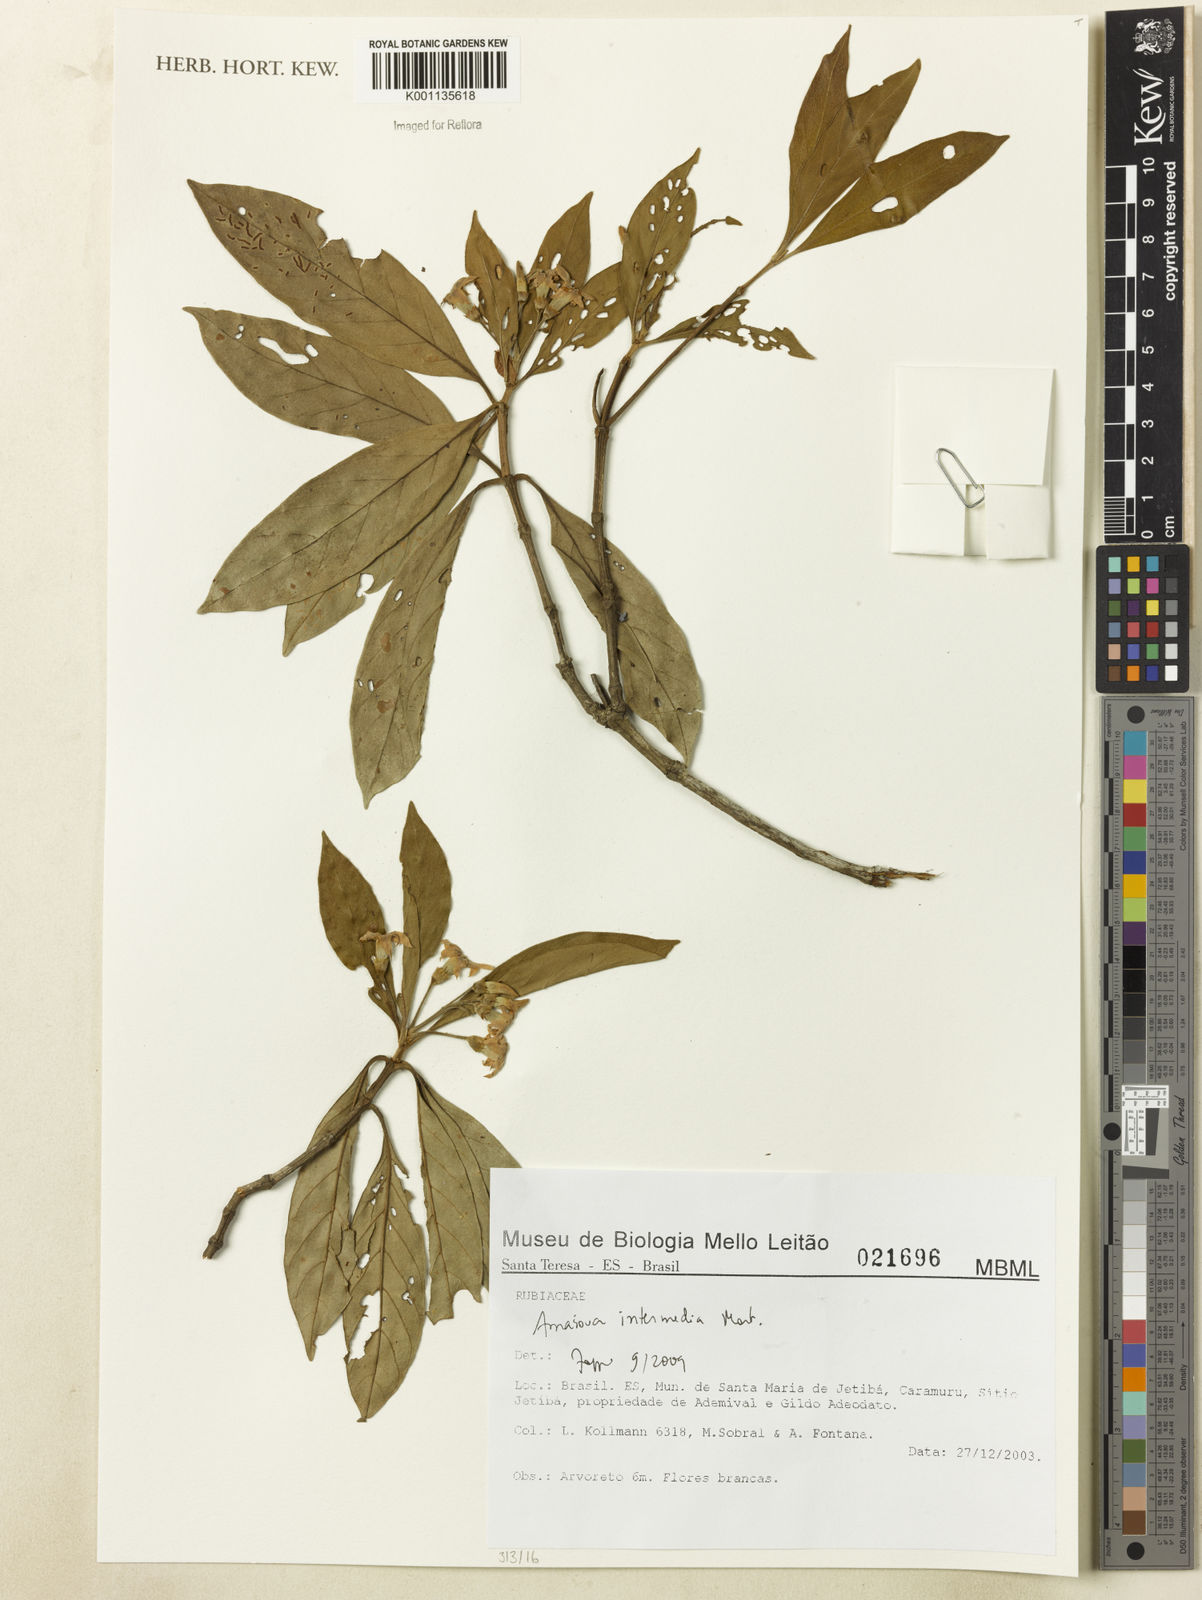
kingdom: Plantae
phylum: Tracheophyta
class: Magnoliopsida
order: Gentianales
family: Rubiaceae
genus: Amaioua
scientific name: Amaioua intermedia
